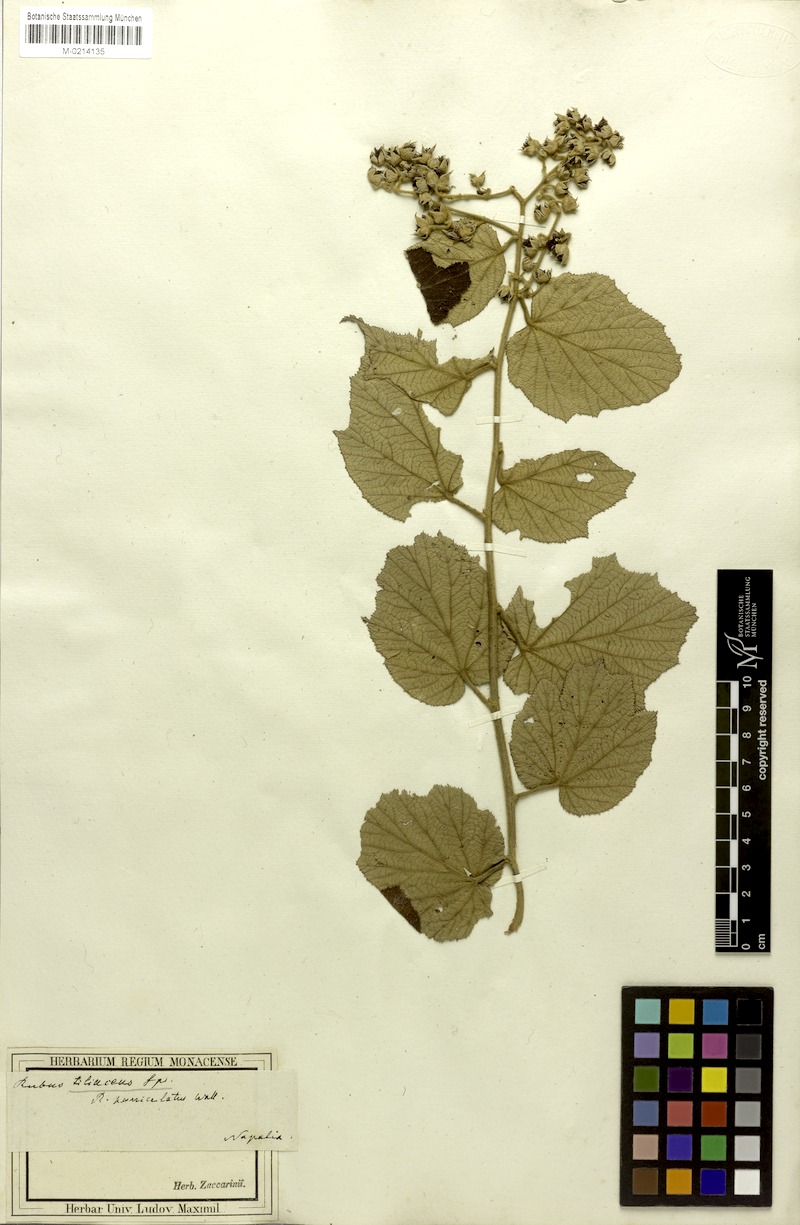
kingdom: Plantae
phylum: Tracheophyta
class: Magnoliopsida
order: Rosales
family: Rosaceae
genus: Rubus
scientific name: Rubus paniculatus
